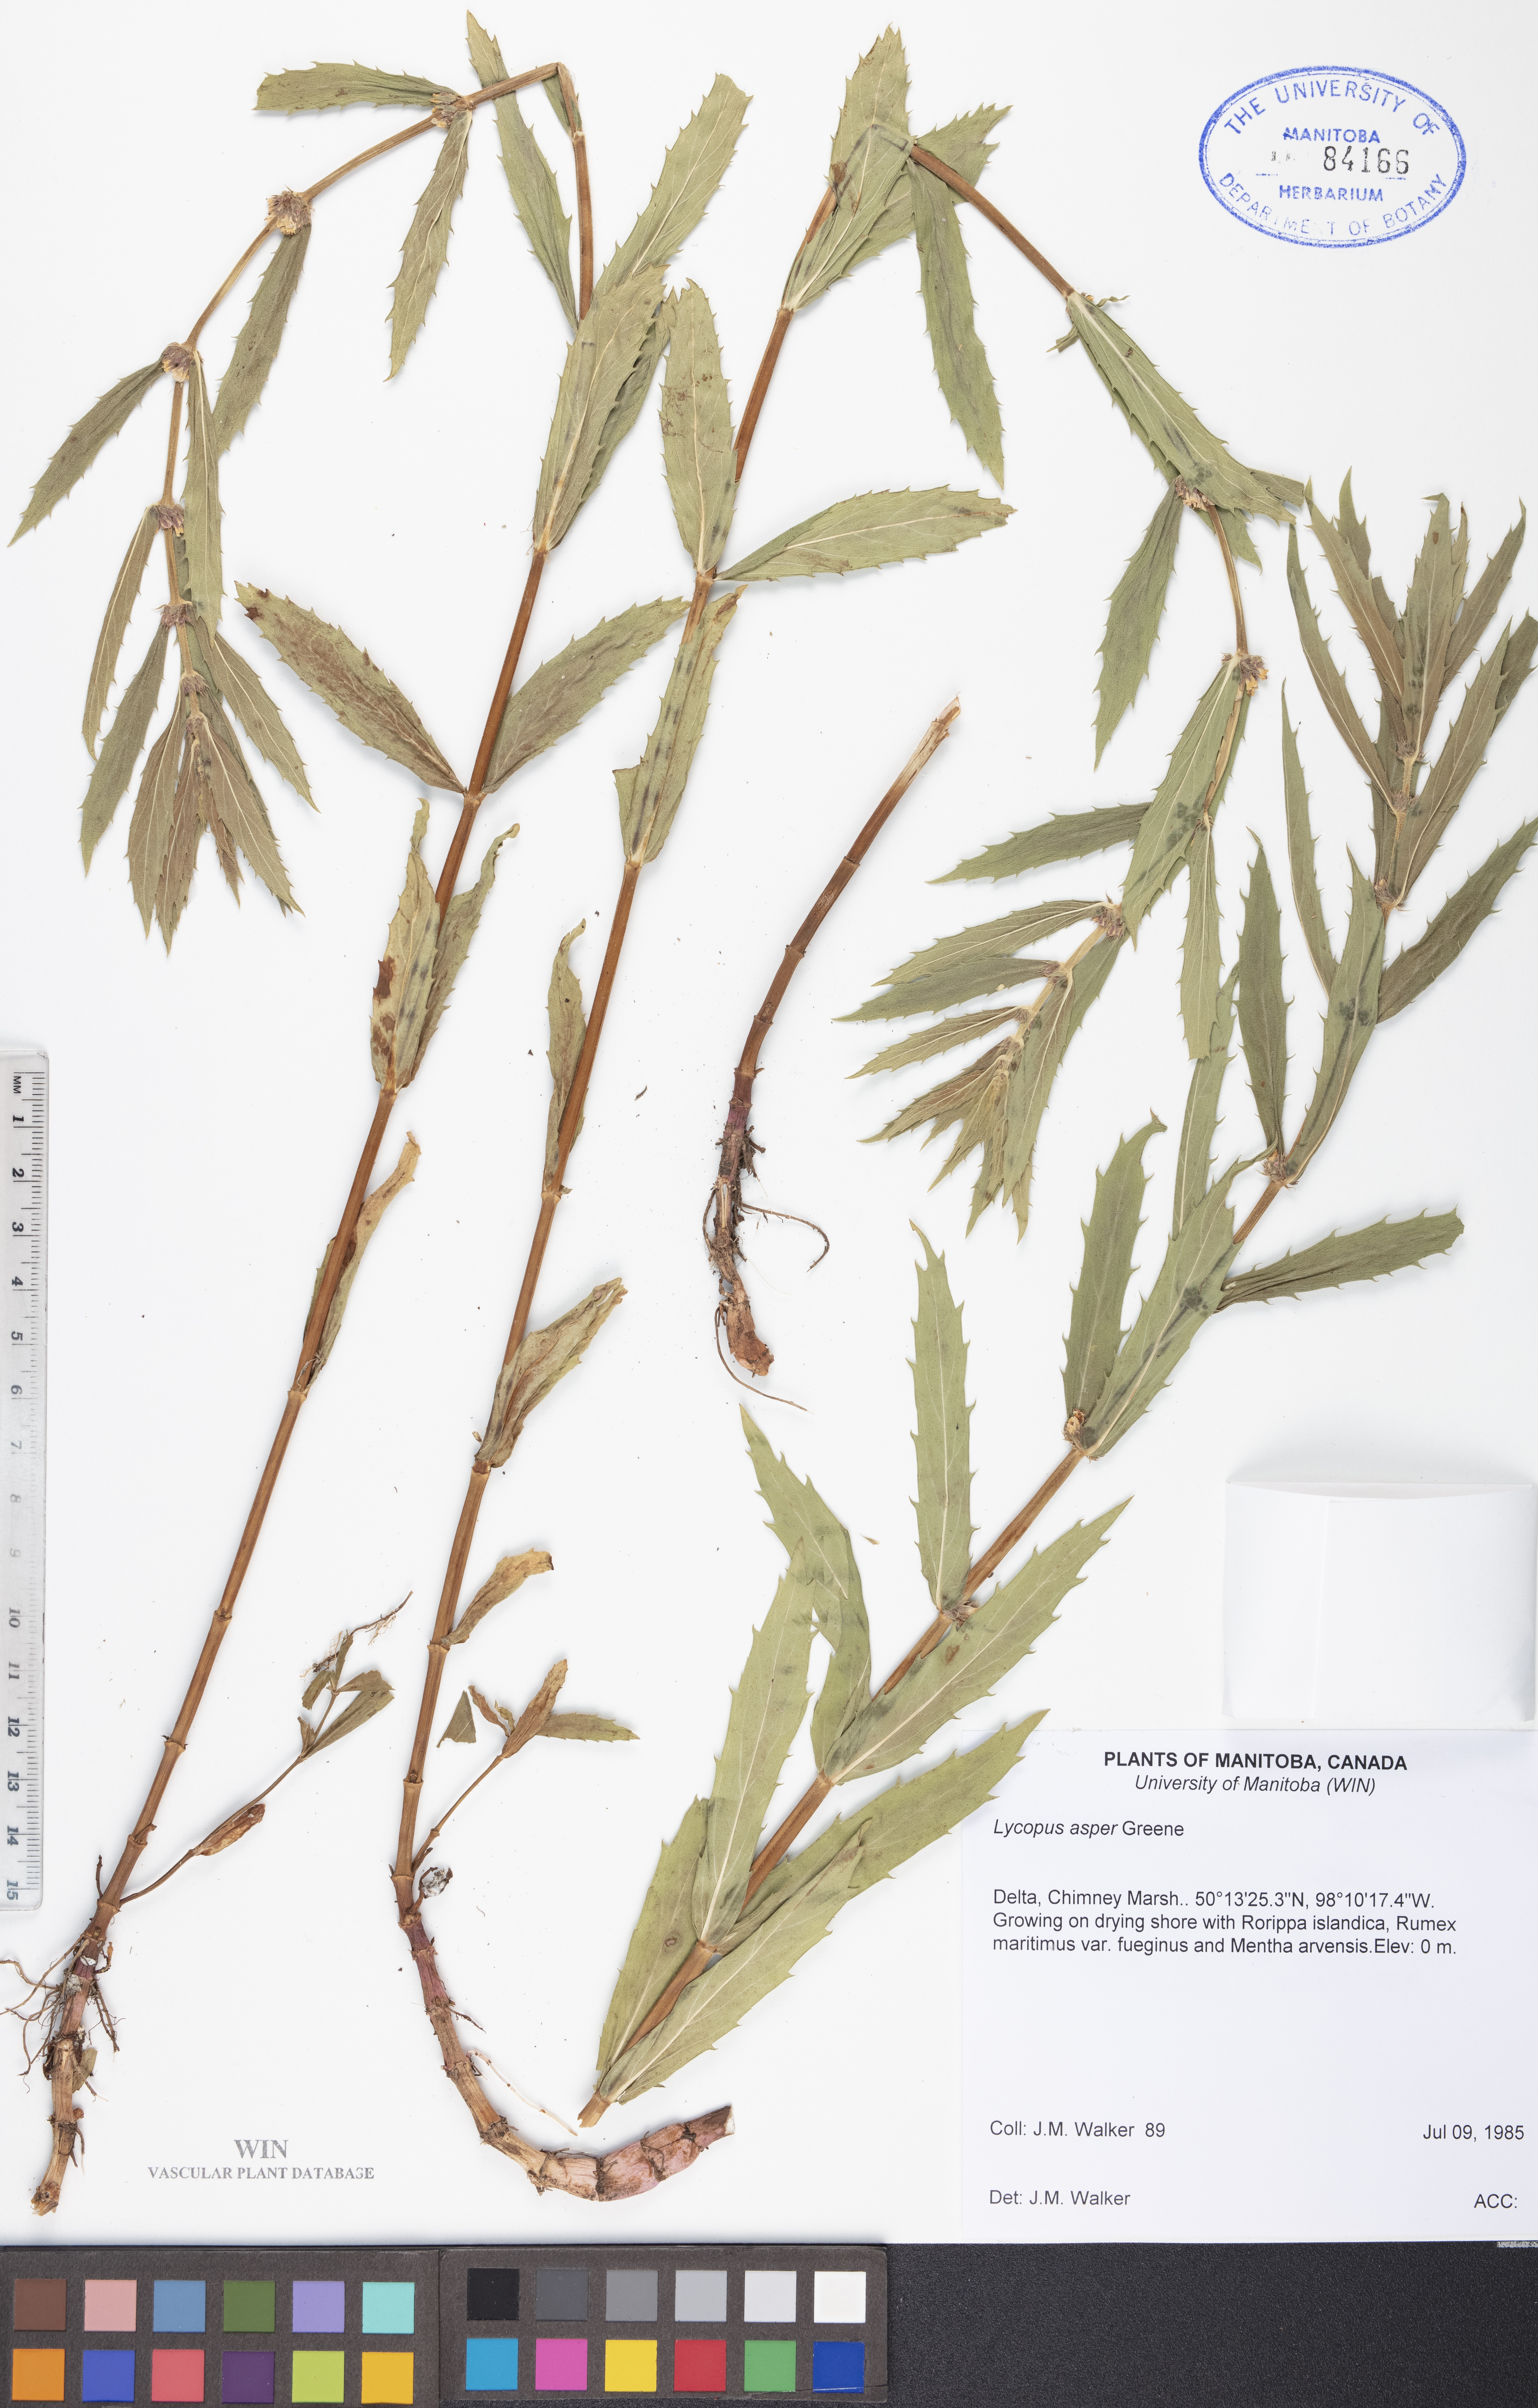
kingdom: Plantae
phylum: Tracheophyta
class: Magnoliopsida
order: Lamiales
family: Lamiaceae
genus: Lycopus
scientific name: Lycopus asper
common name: Rough water-horehound
